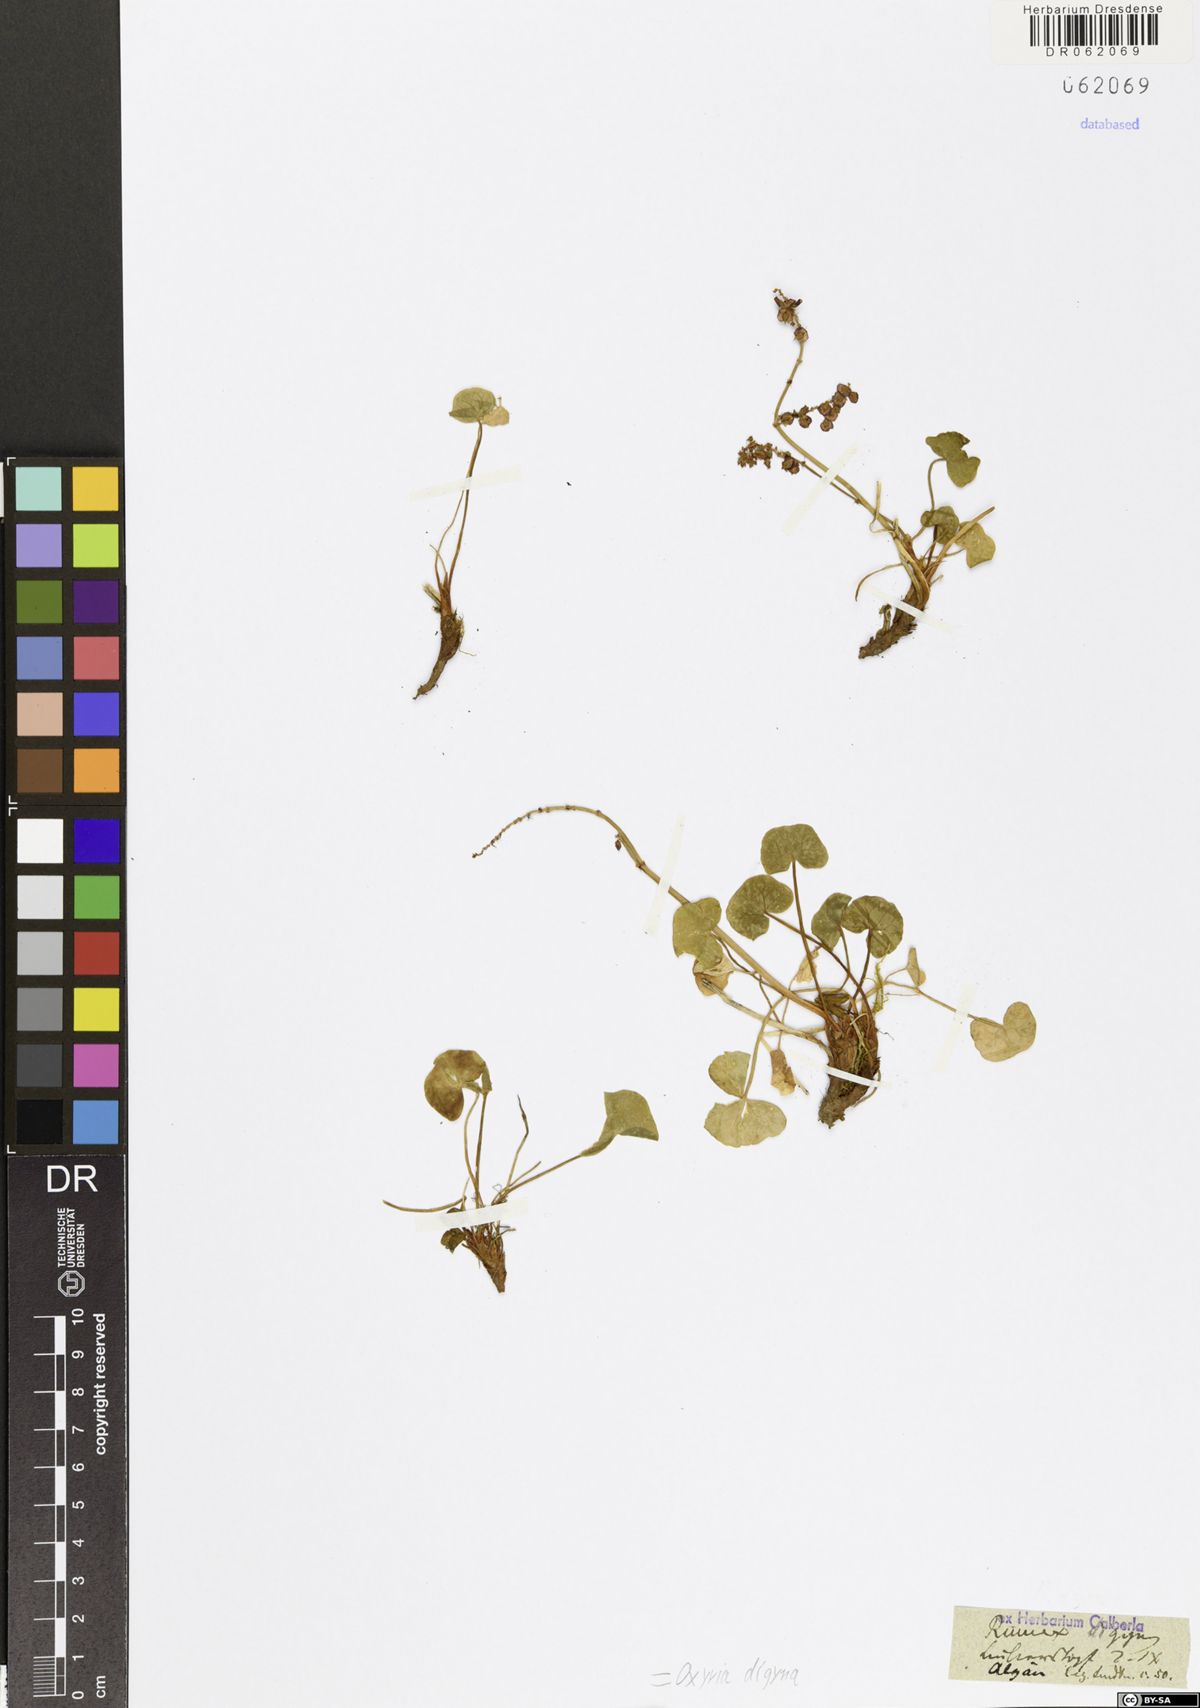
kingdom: Plantae
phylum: Tracheophyta
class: Magnoliopsida
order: Caryophyllales
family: Polygonaceae
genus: Oxyria
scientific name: Oxyria digyna
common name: Alpine mountain-sorrel
